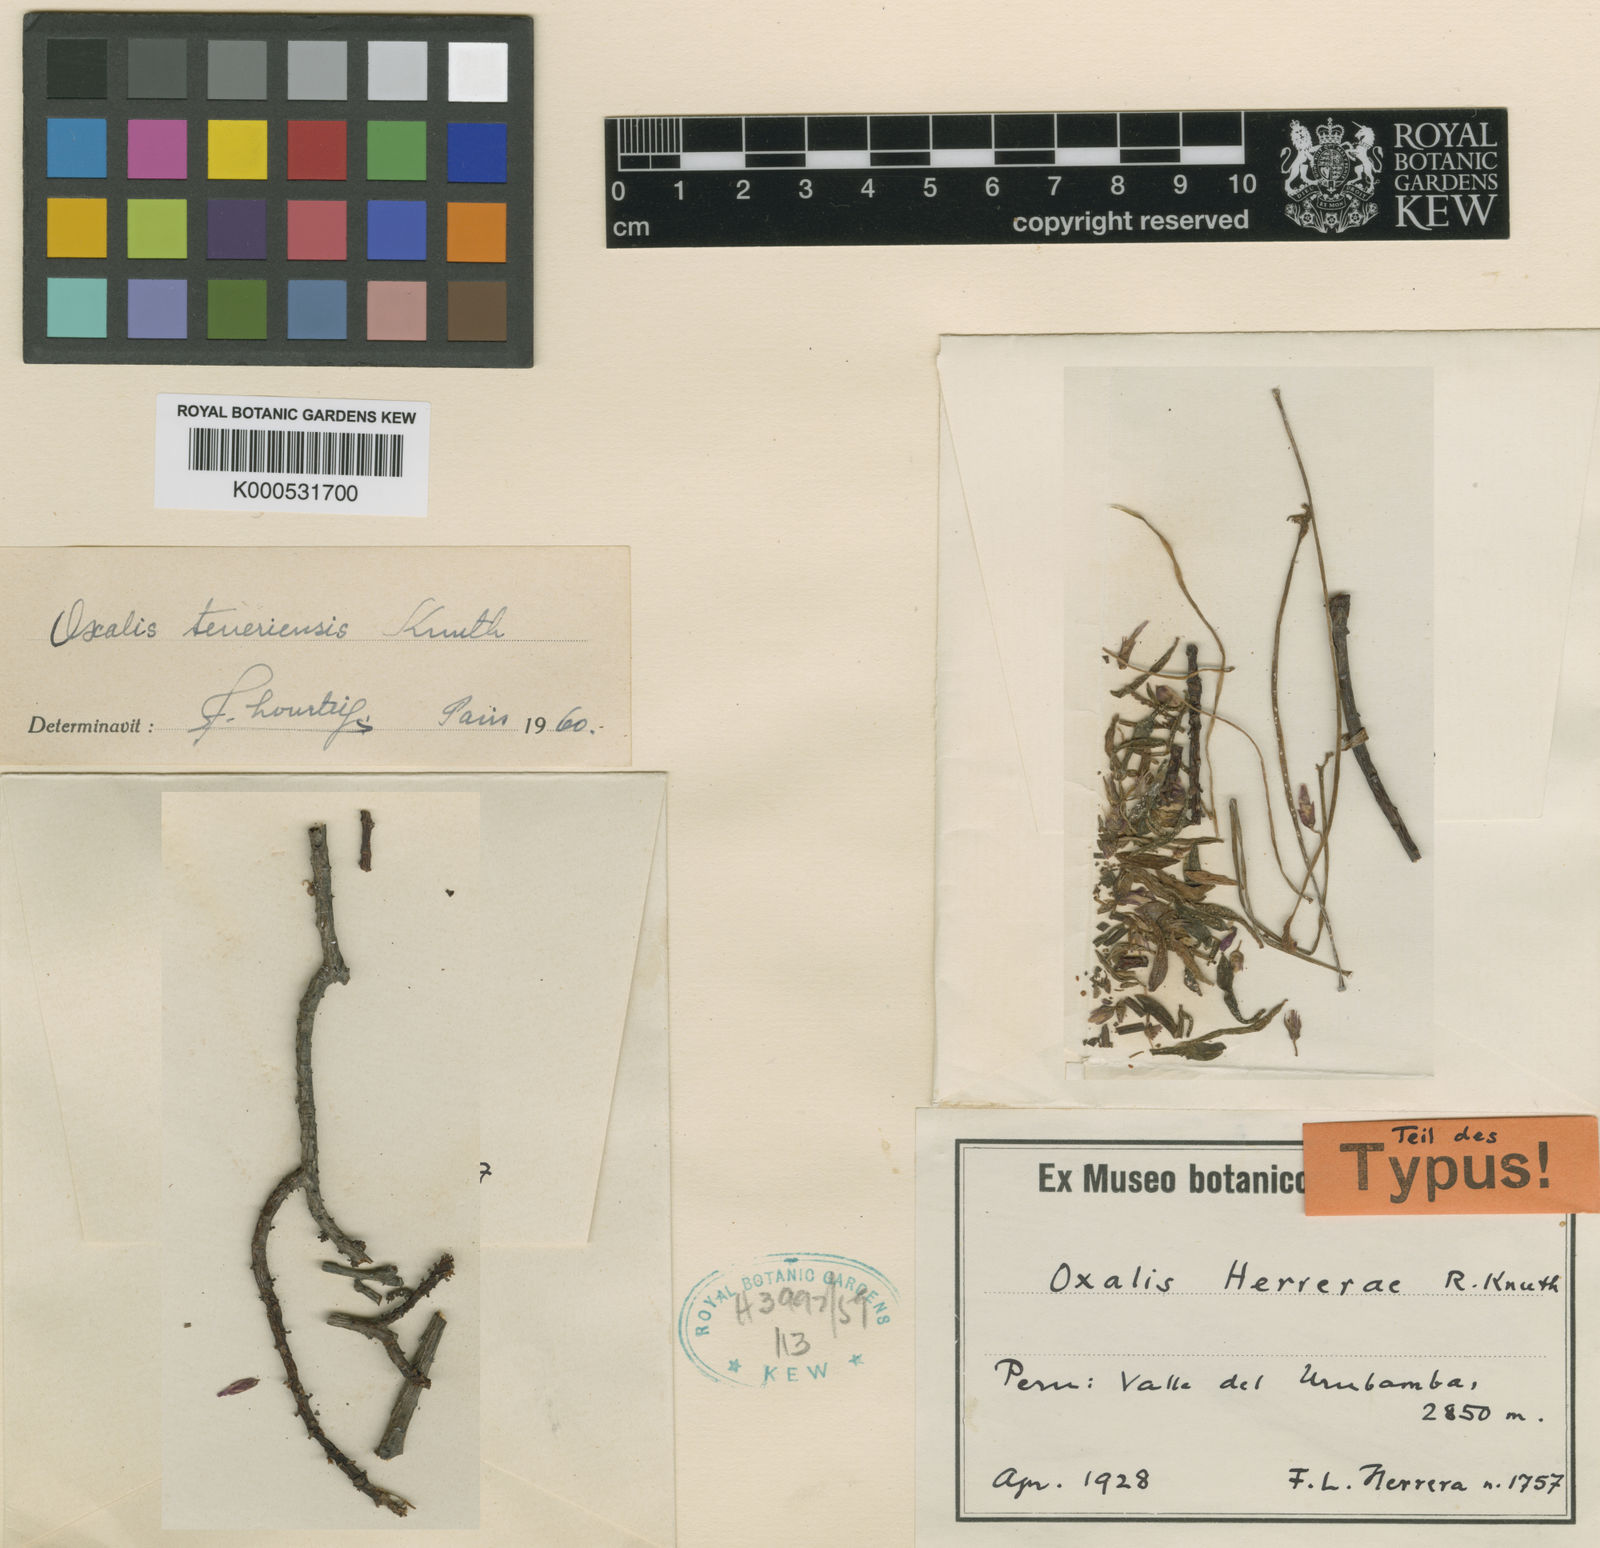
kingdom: Plantae
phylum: Tracheophyta
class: Magnoliopsida
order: Oxalidales
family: Oxalidaceae
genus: Oxalis
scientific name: Oxalis teneriensis
